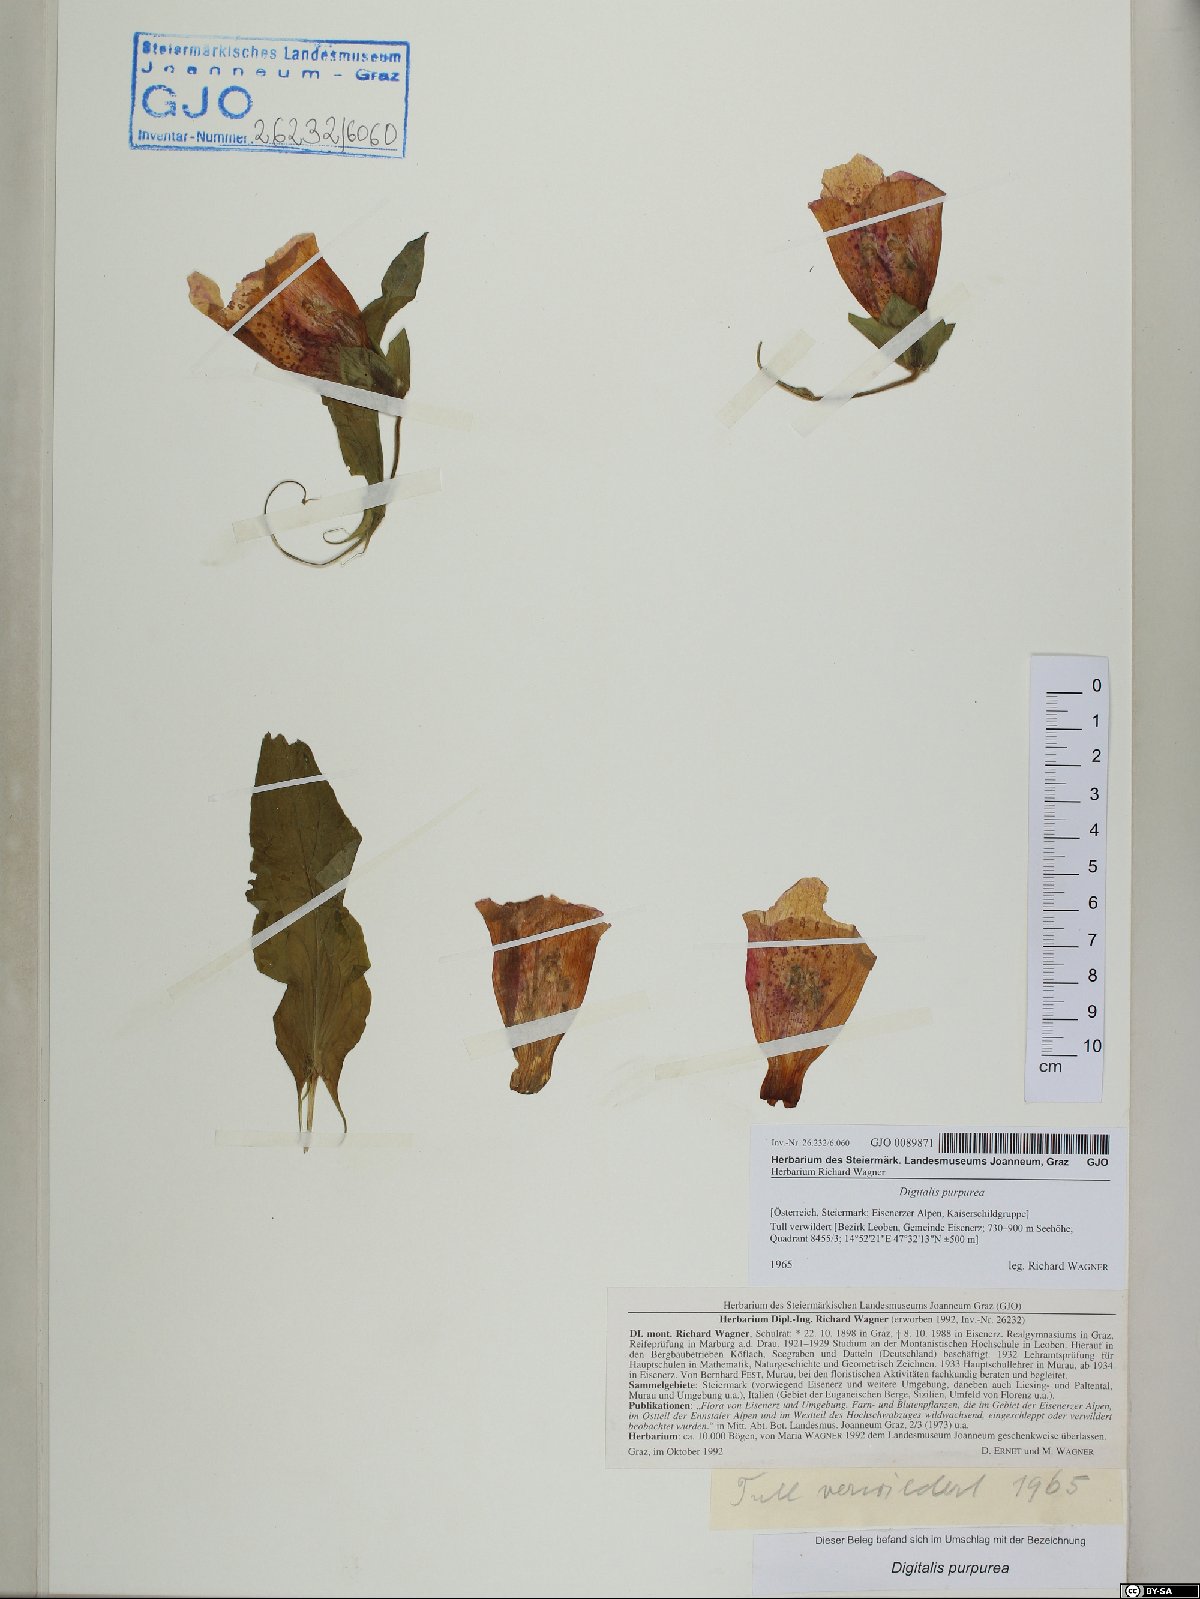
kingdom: Plantae
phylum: Tracheophyta
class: Magnoliopsida
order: Lamiales
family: Plantaginaceae
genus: Digitalis
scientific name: Digitalis purpurea
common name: Foxglove
